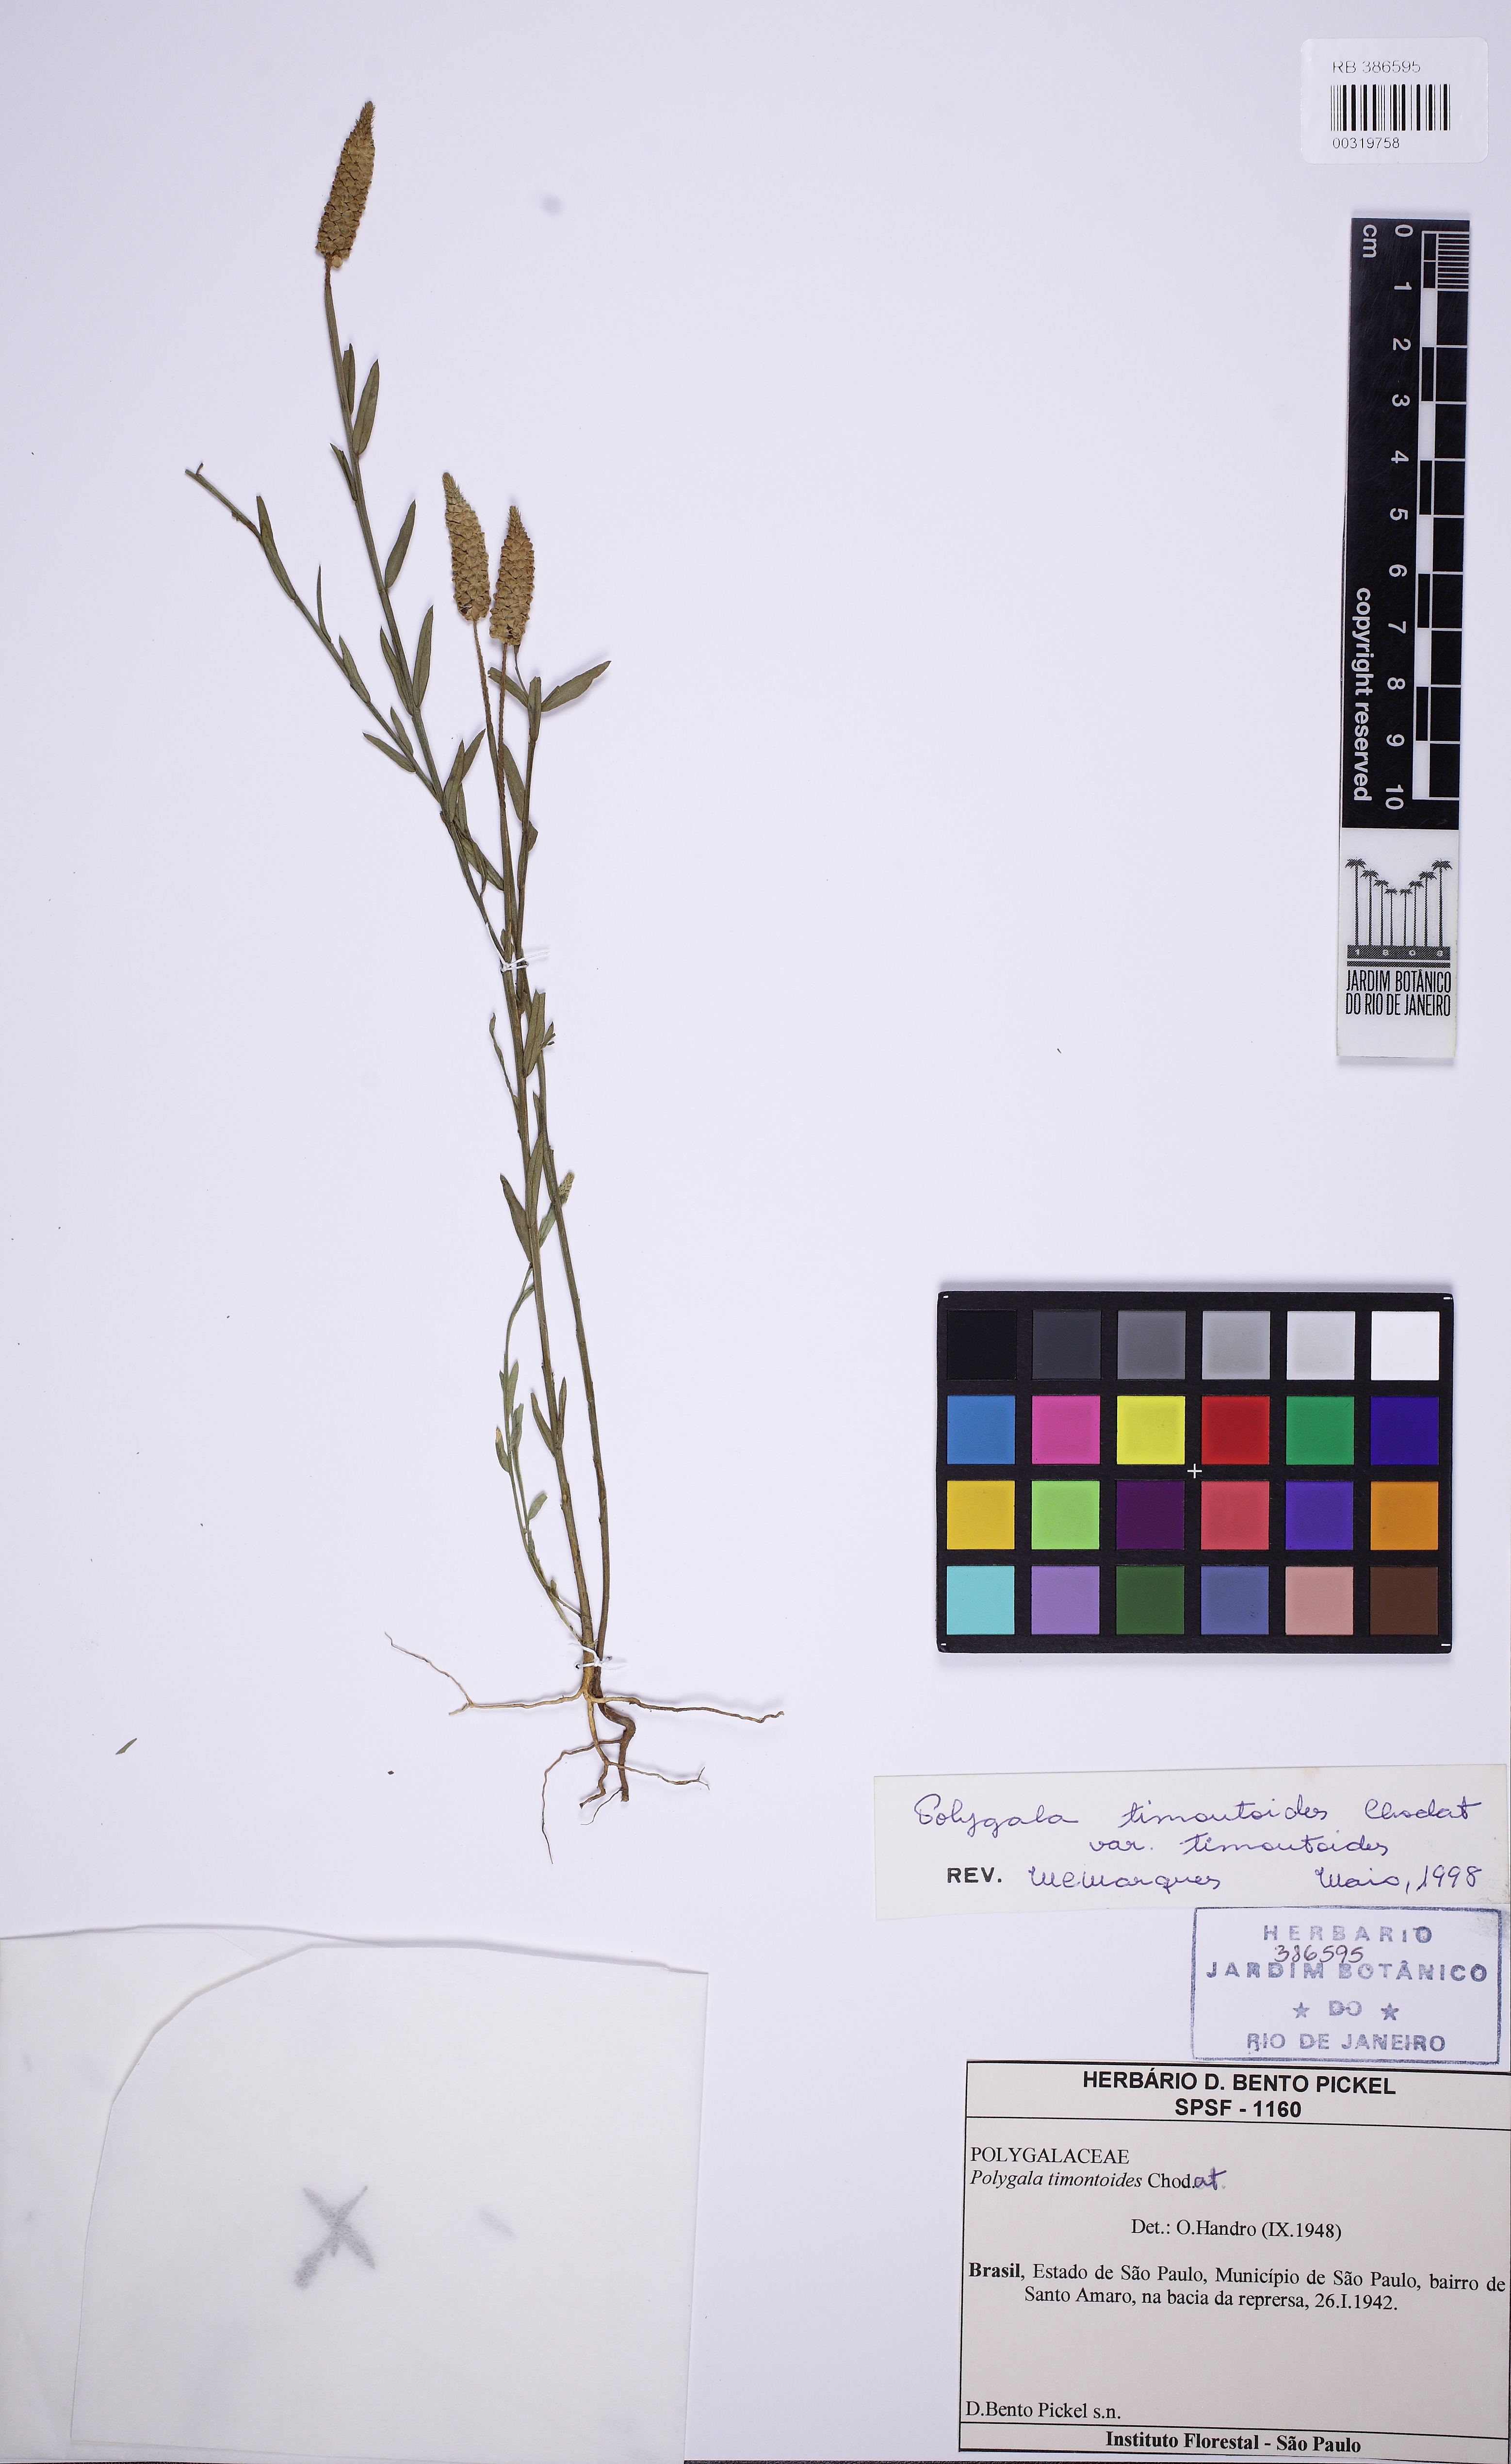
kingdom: Plantae
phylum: Tracheophyta
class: Magnoliopsida
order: Fabales
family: Polygalaceae
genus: Polygala
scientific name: Polygala timoutoides
